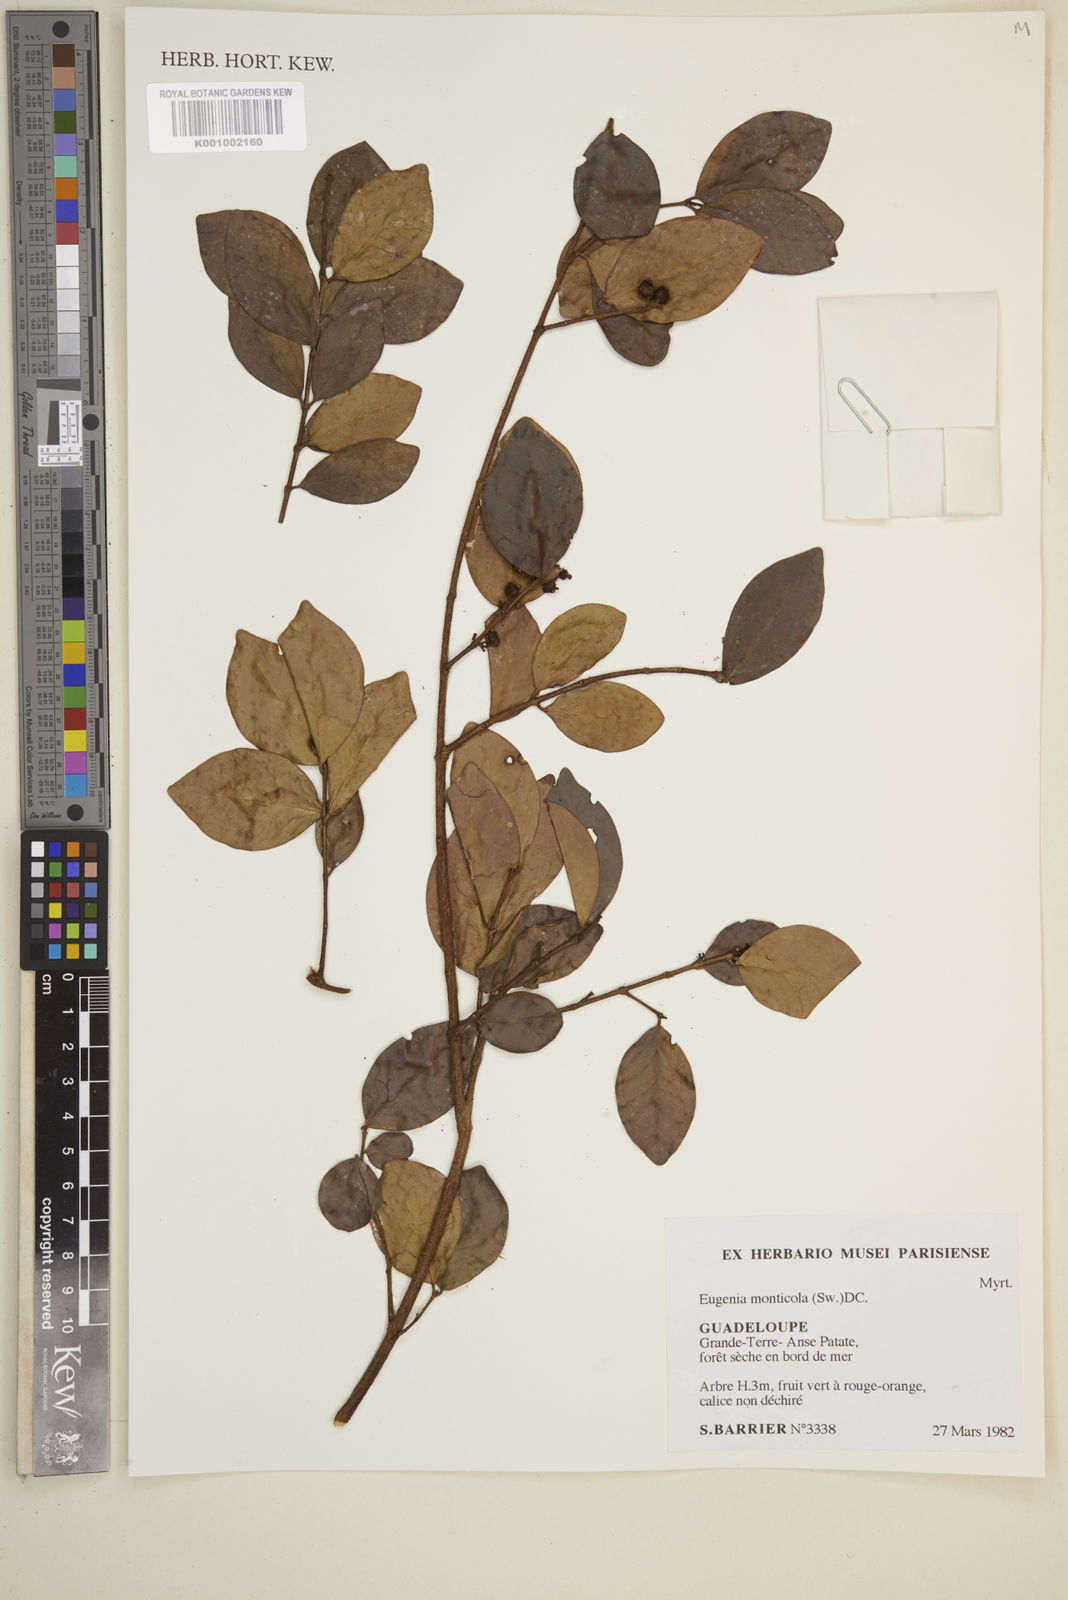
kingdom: Plantae
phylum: Tracheophyta
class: Magnoliopsida
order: Myrtales
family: Myrtaceae
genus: Eugenia
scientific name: Eugenia monticola
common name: Birds berry
